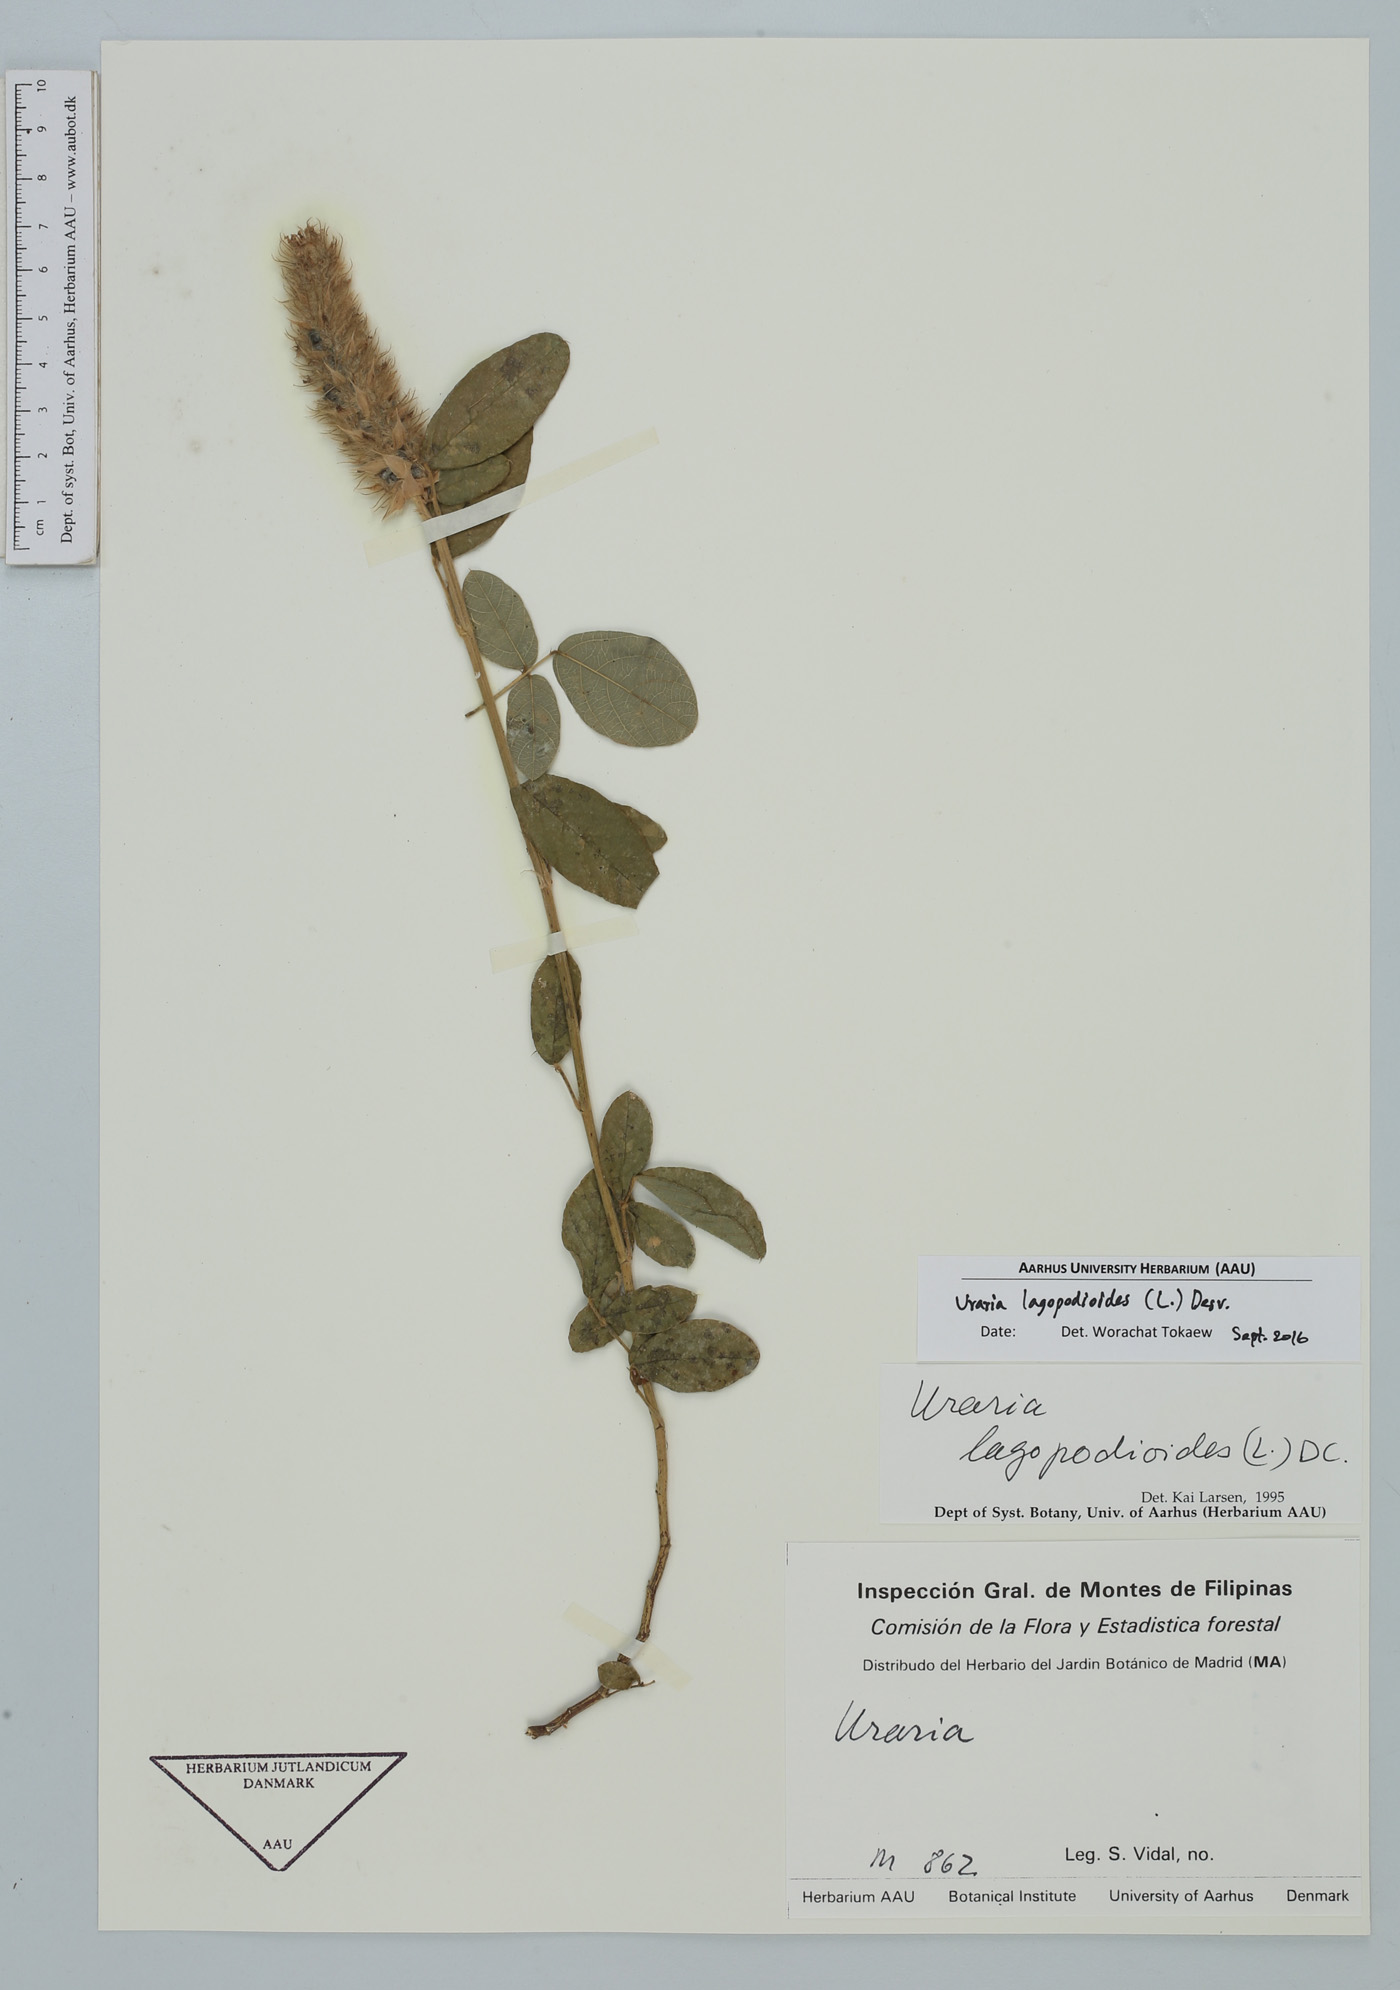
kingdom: Plantae
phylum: Tracheophyta
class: Magnoliopsida
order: Fabales
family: Fabaceae
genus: Uraria
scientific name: Uraria lagopodioides
